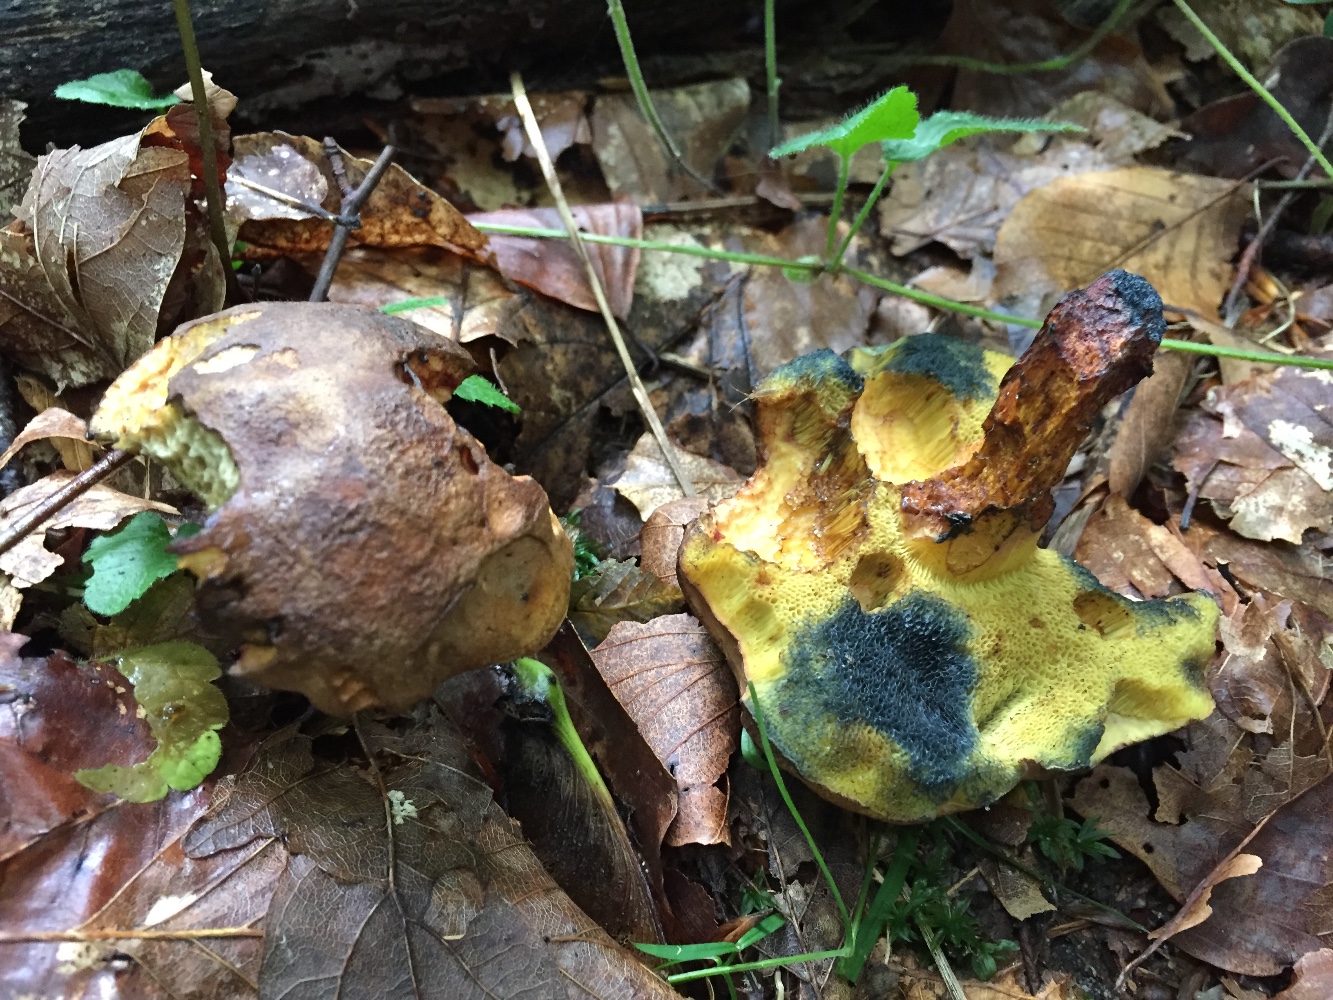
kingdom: Fungi
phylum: Basidiomycota
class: Agaricomycetes
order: Boletales
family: Boletaceae
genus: Cyanoboletus
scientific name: Cyanoboletus pulverulentus
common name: sortblånende rørhat
